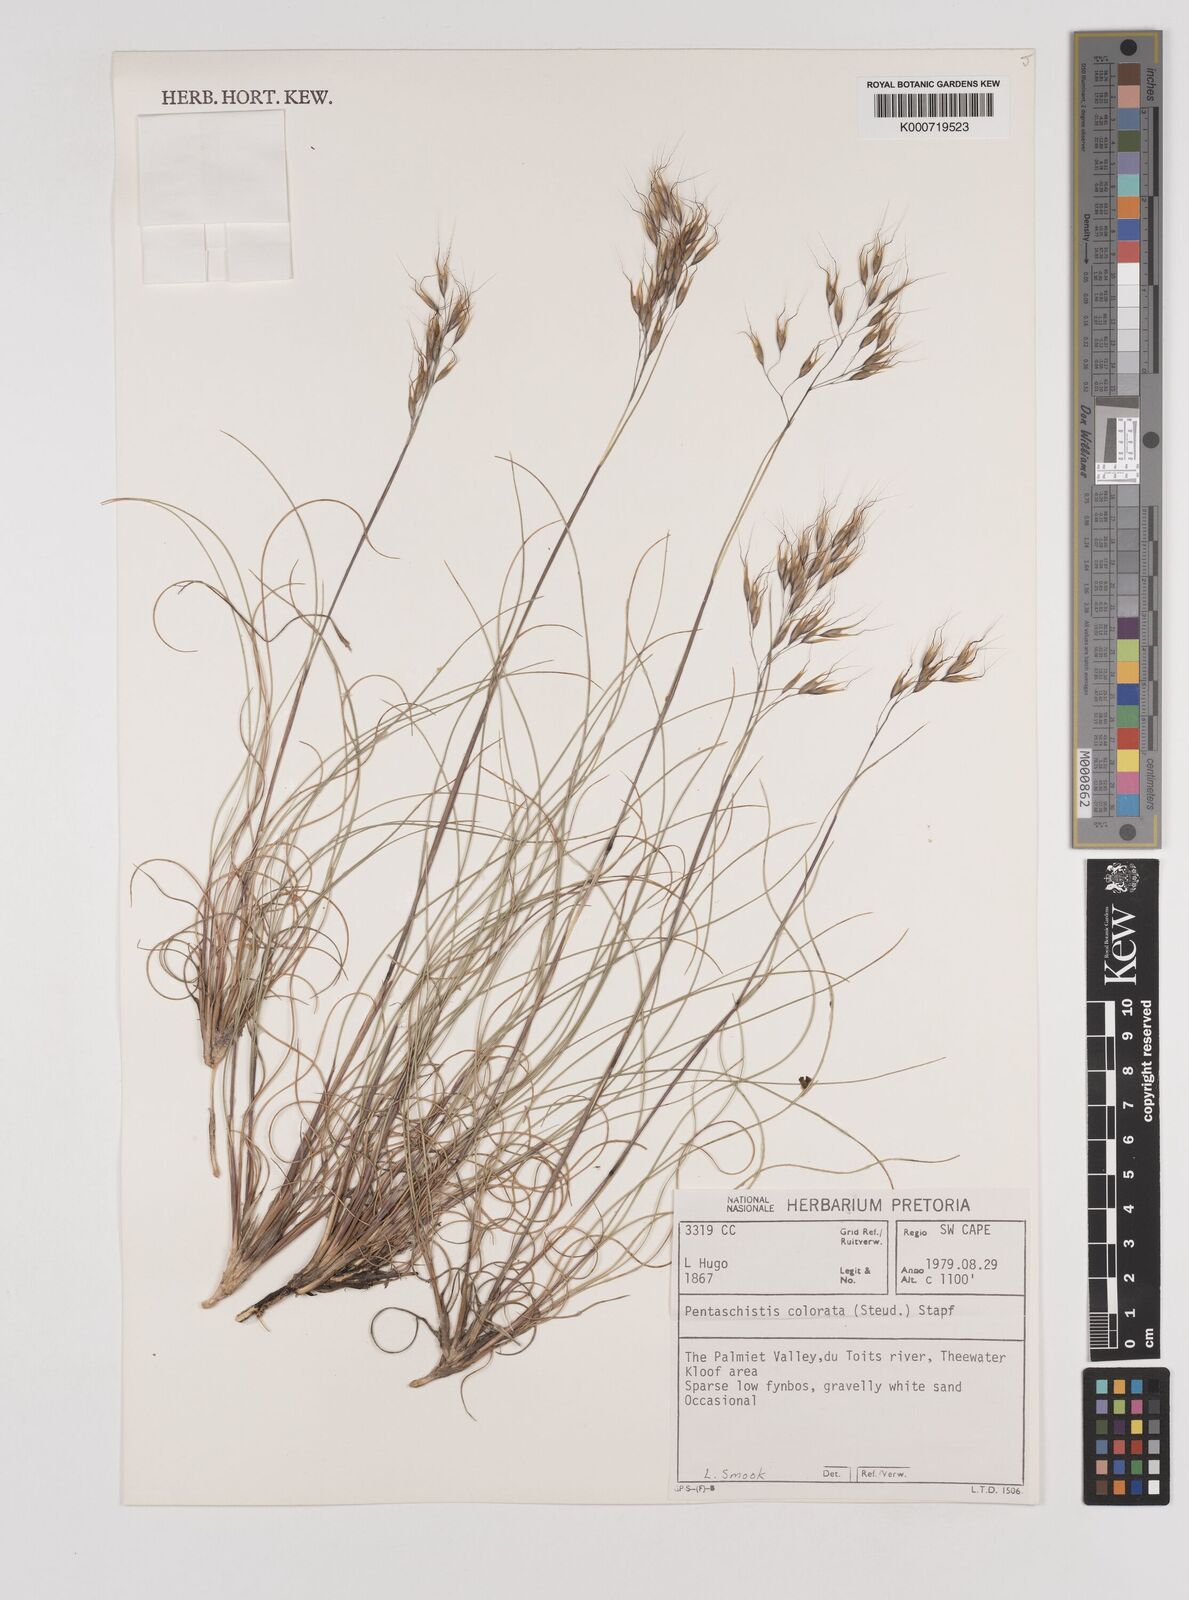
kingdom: Plantae
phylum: Tracheophyta
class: Liliopsida
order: Poales
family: Poaceae
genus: Pentameris
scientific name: Pentameris colorata
